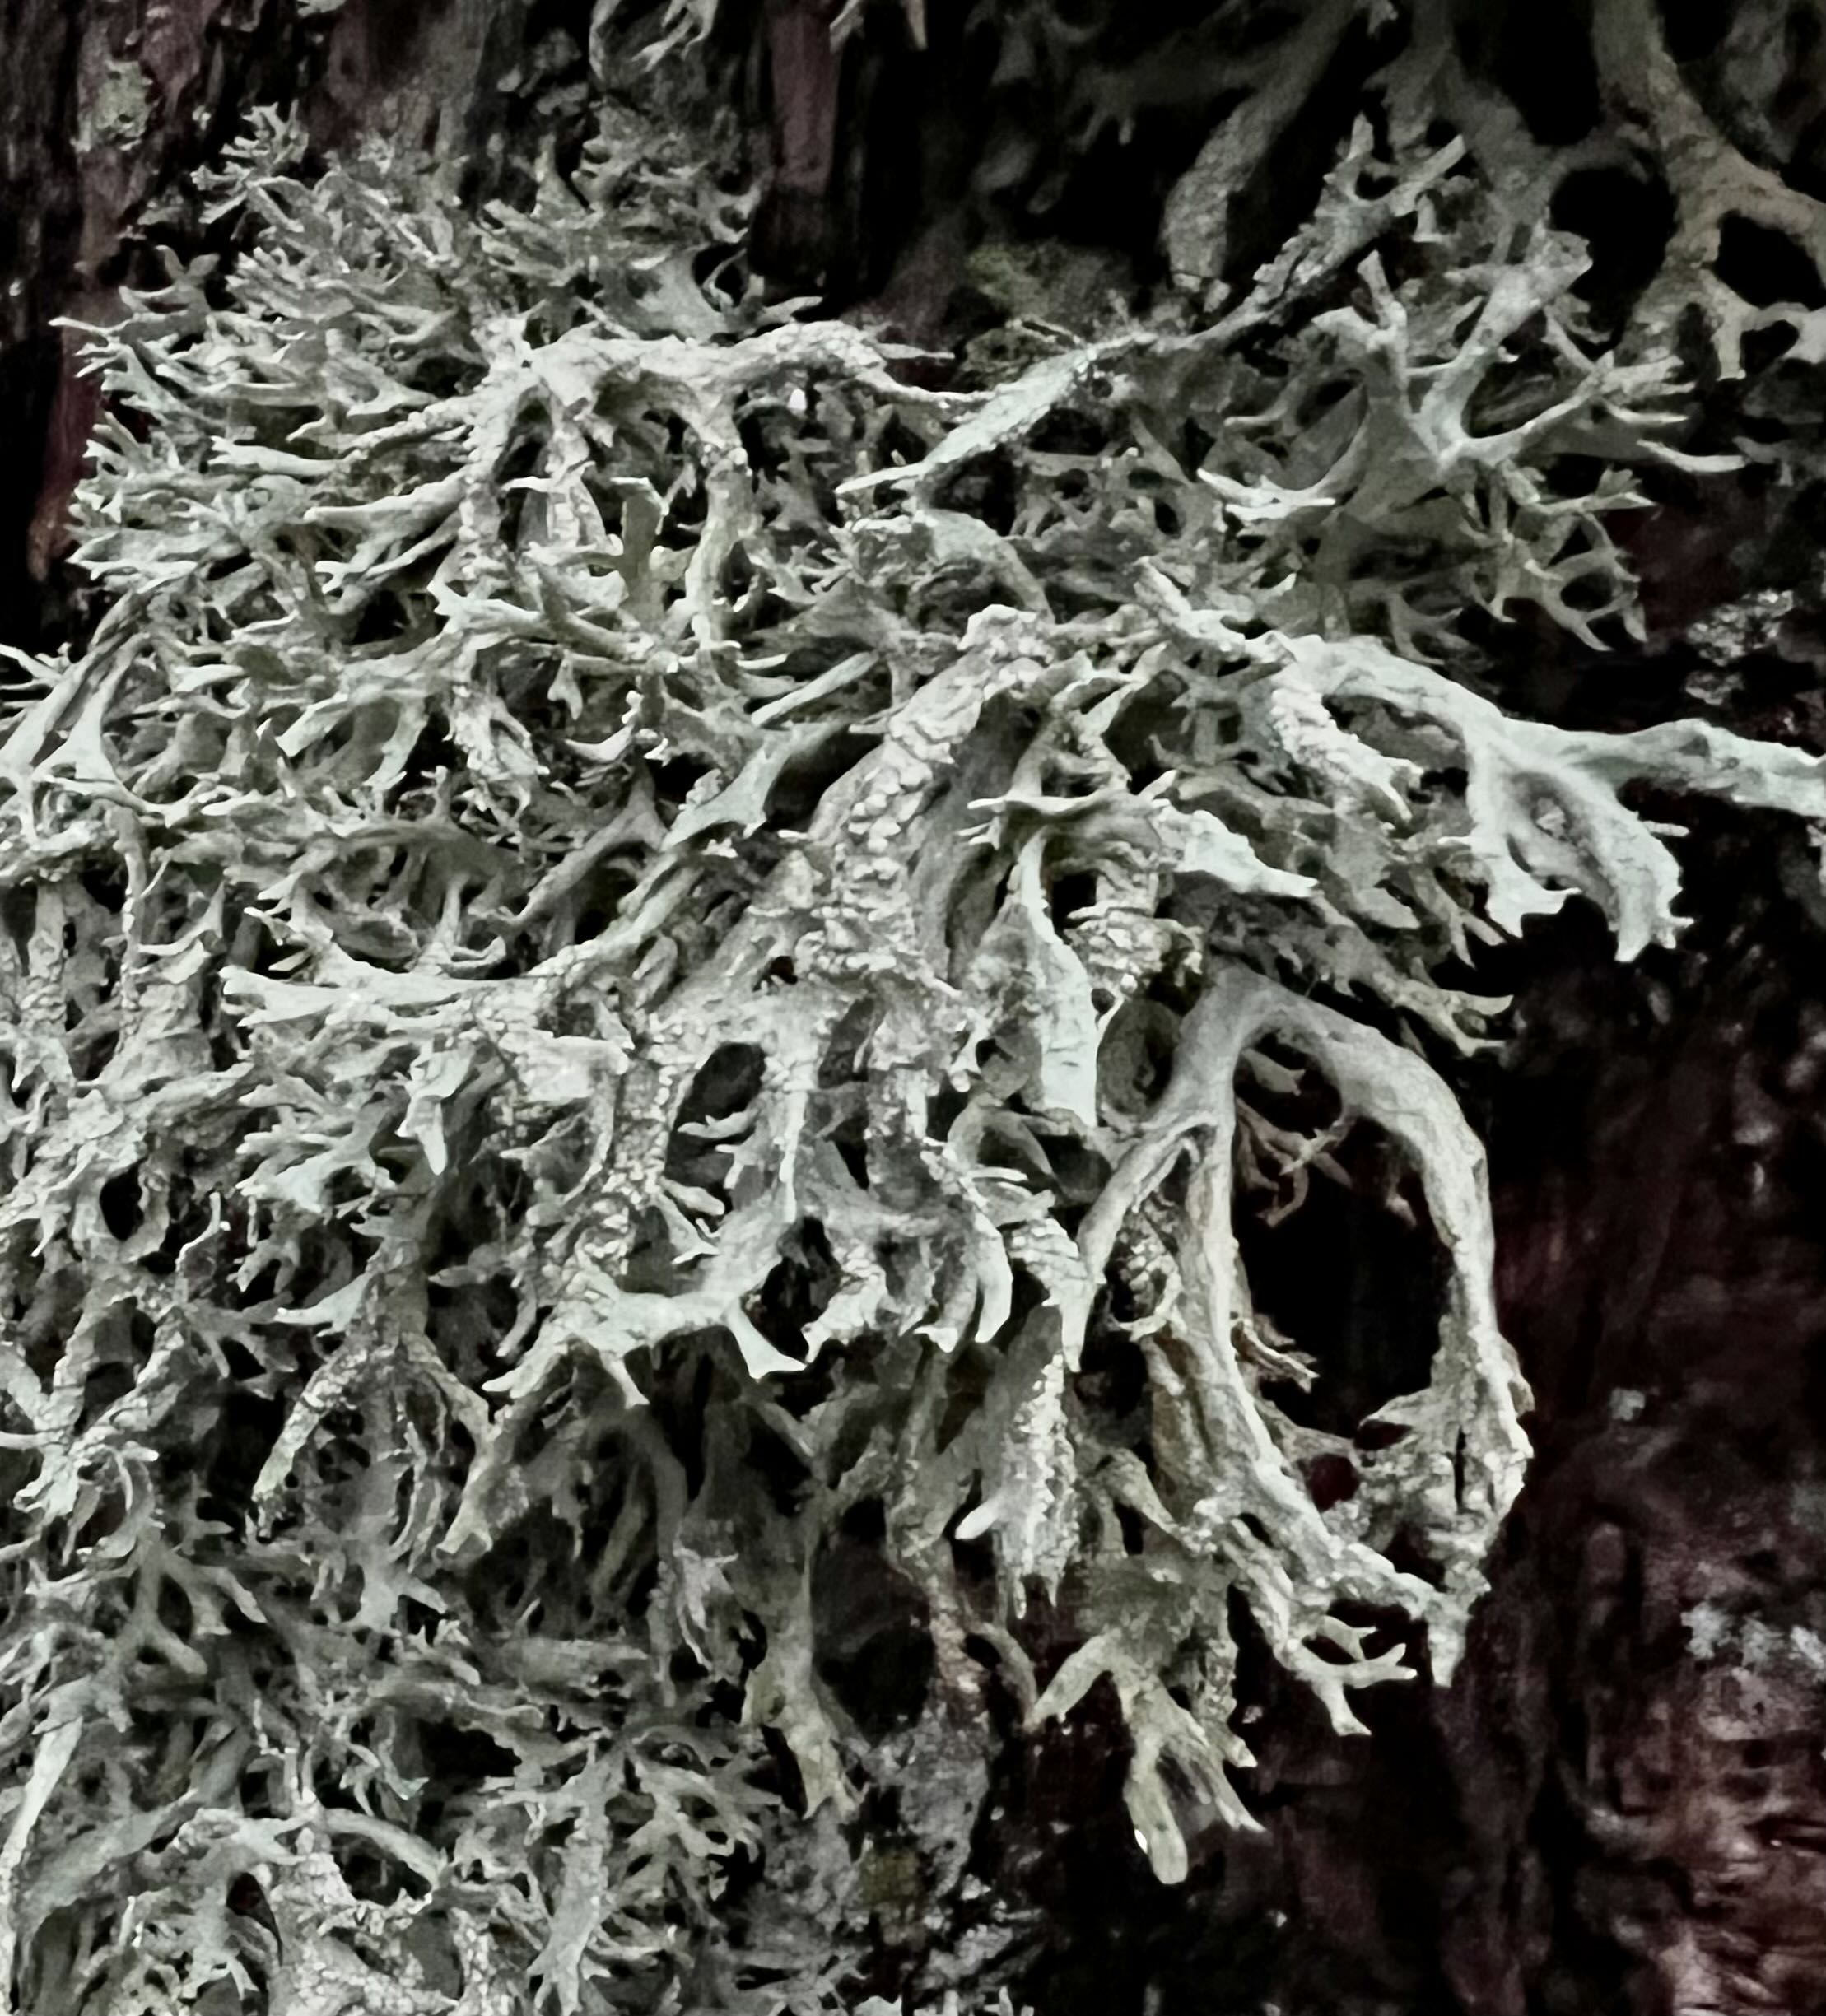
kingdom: Fungi
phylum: Ascomycota
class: Lecanoromycetes
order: Lecanorales
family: Parmeliaceae
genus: Evernia
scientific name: Evernia prunastri
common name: almindelig slåenlav
